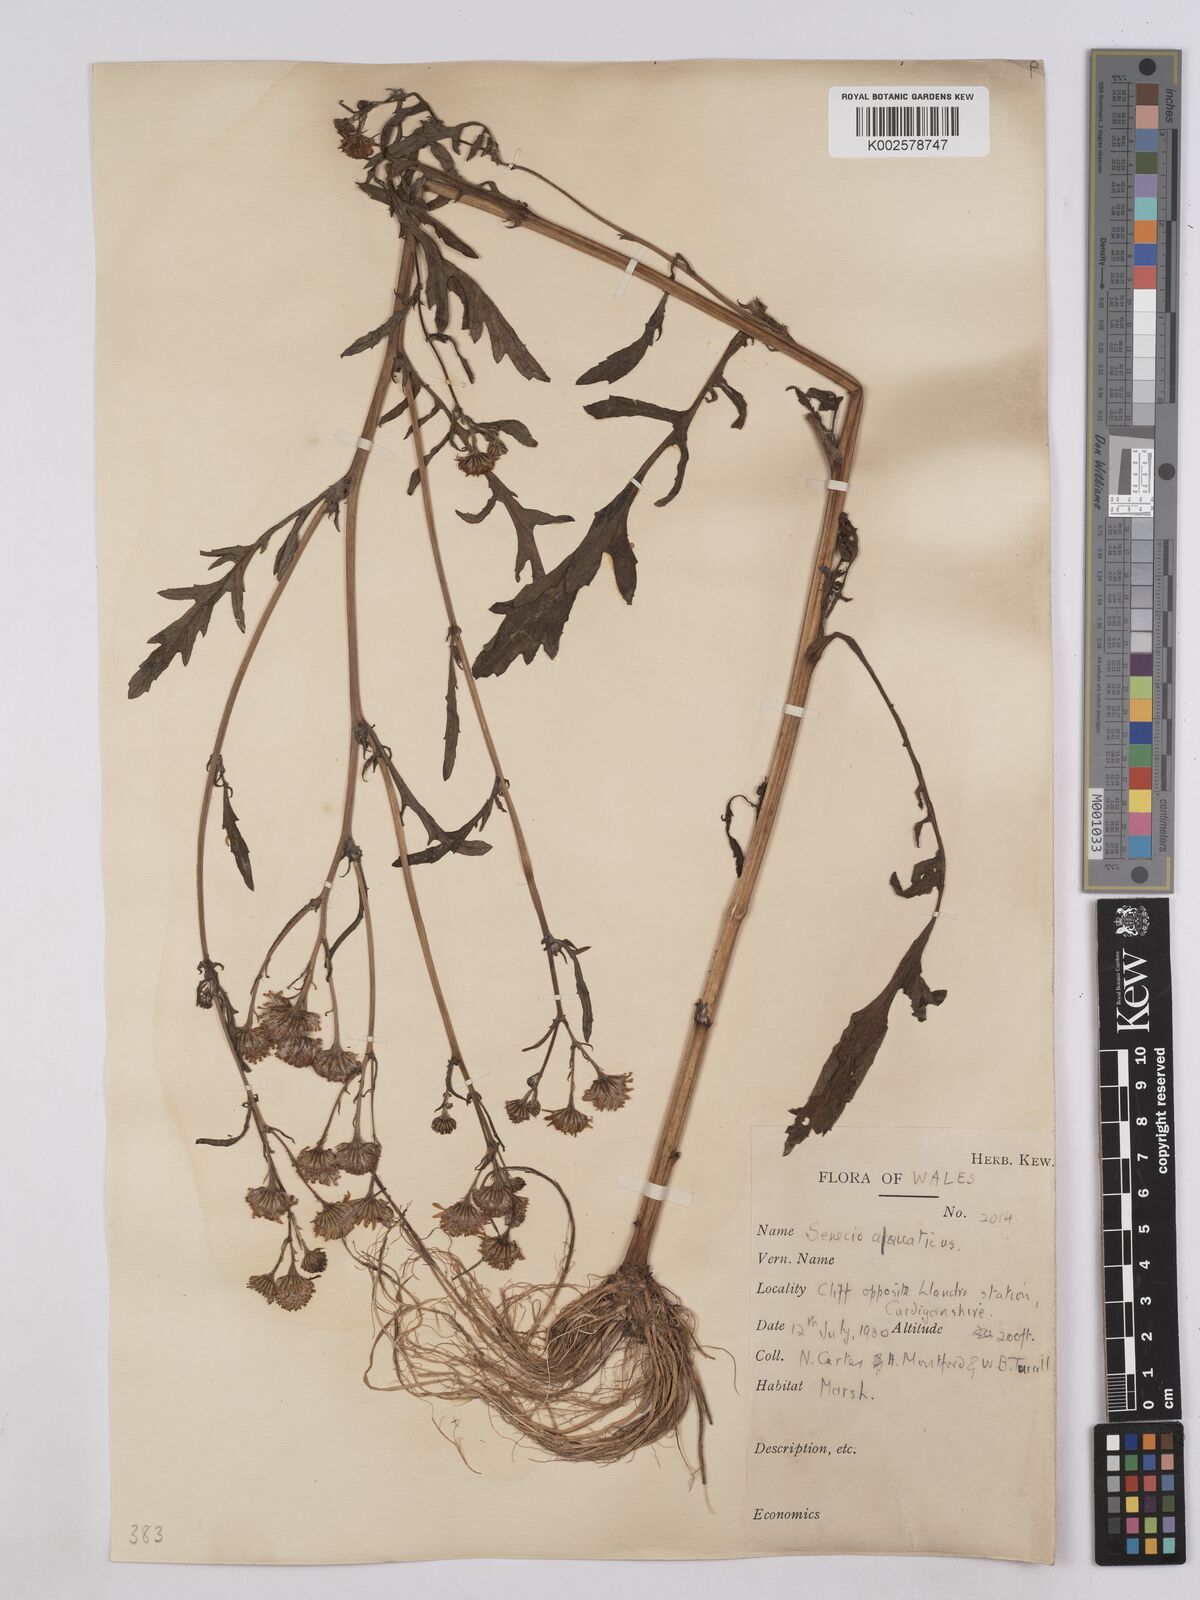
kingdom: Plantae
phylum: Tracheophyta
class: Magnoliopsida
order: Asterales
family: Asteraceae
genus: Jacobaea
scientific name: Jacobaea aquatica
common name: Water ragwort
